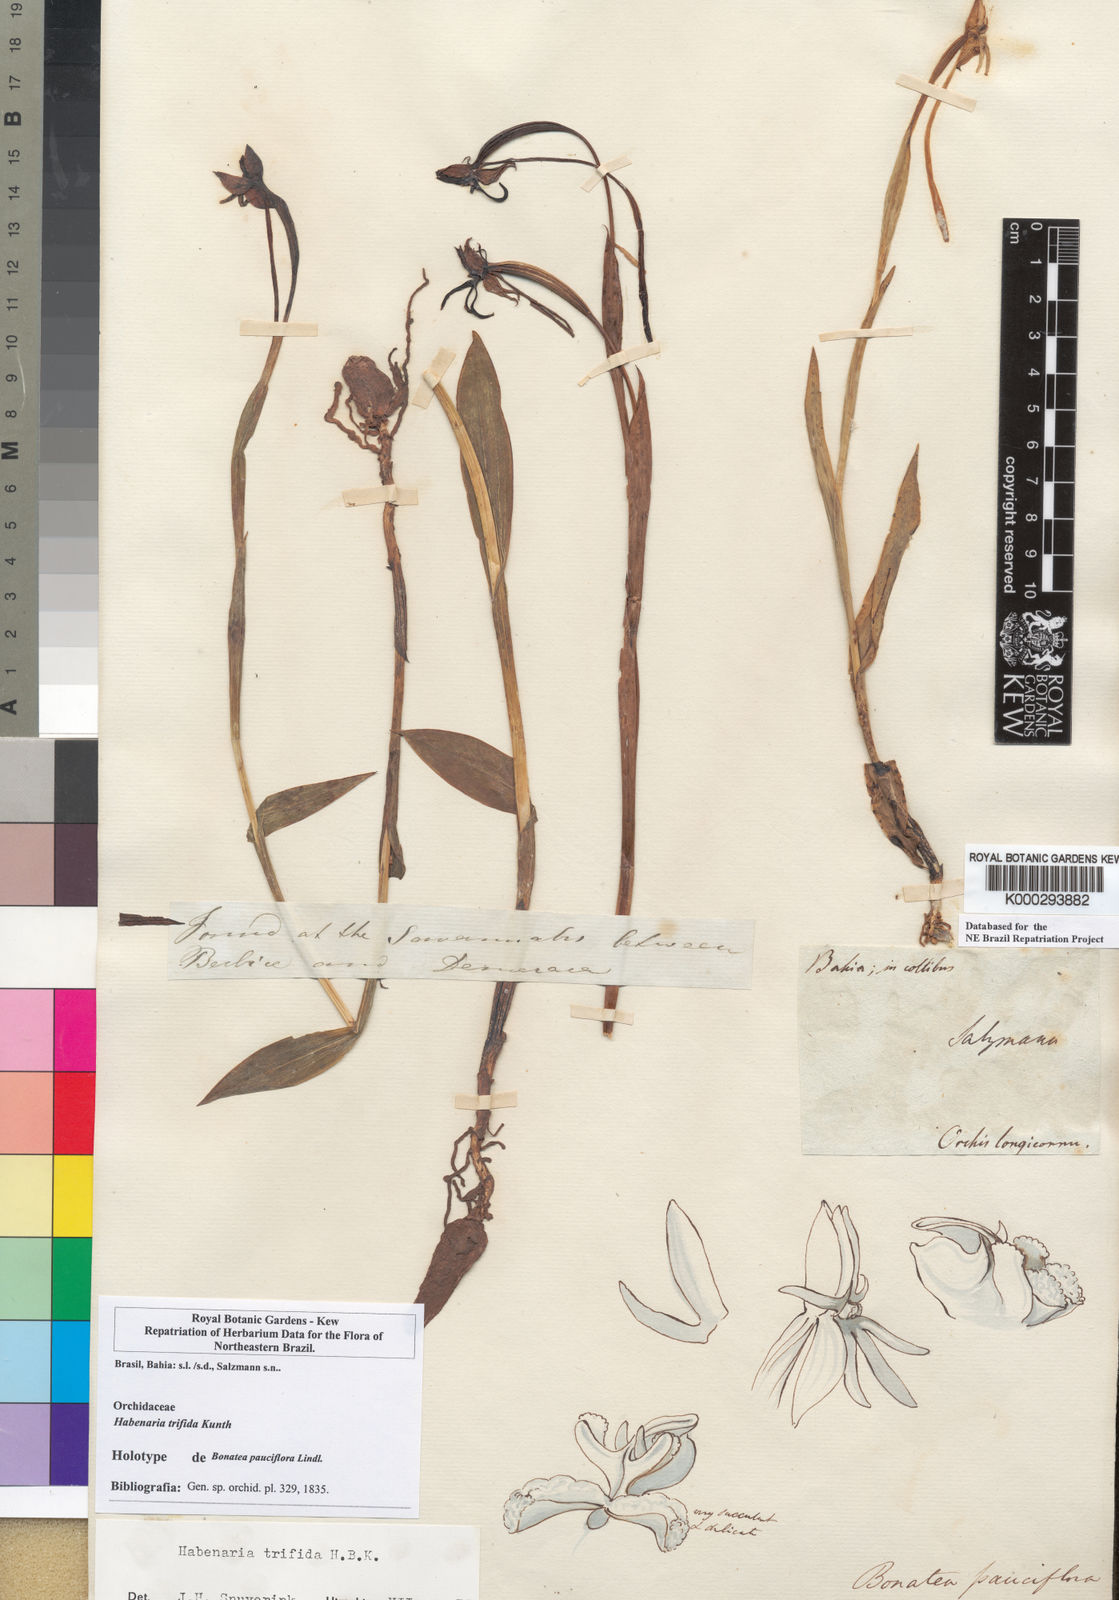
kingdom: Plantae
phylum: Tracheophyta
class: Liliopsida
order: Asparagales
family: Orchidaceae
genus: Habenaria
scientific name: Habenaria trifida
